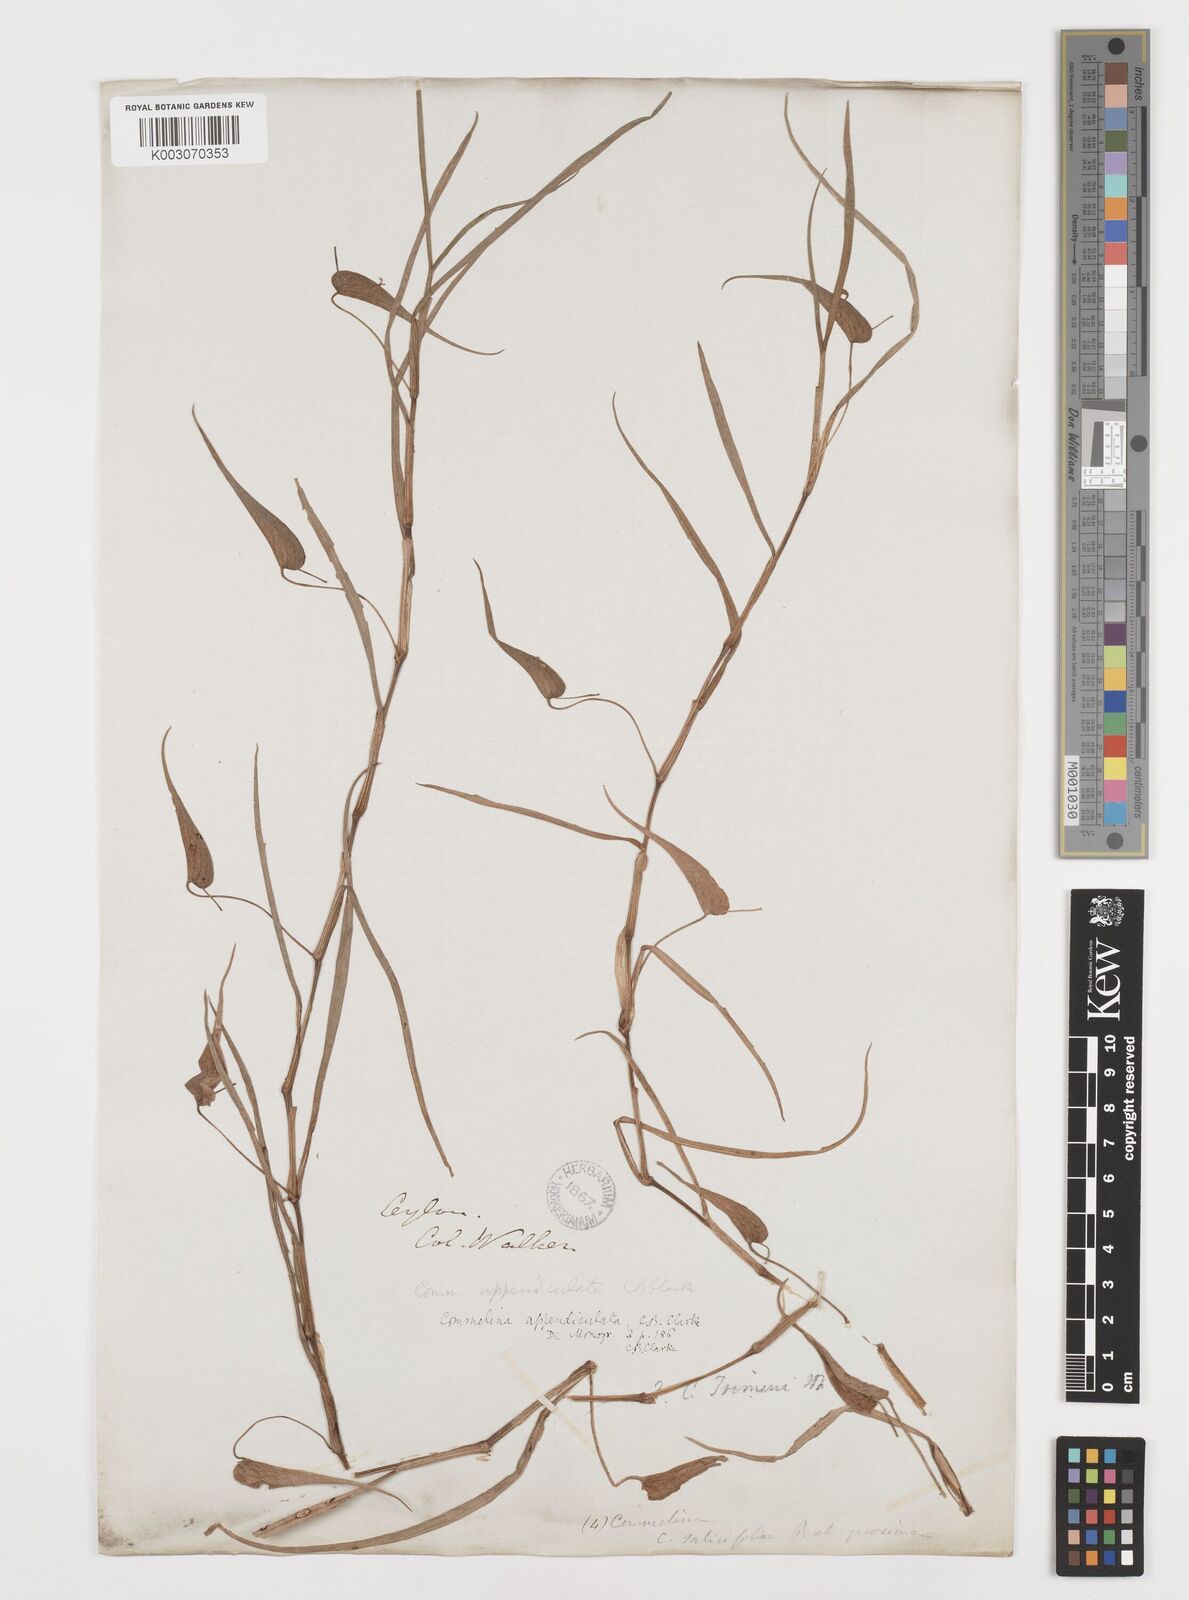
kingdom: Plantae
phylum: Tracheophyta
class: Liliopsida
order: Commelinales
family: Commelinaceae
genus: Commelina
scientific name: Commelina appendiculata
